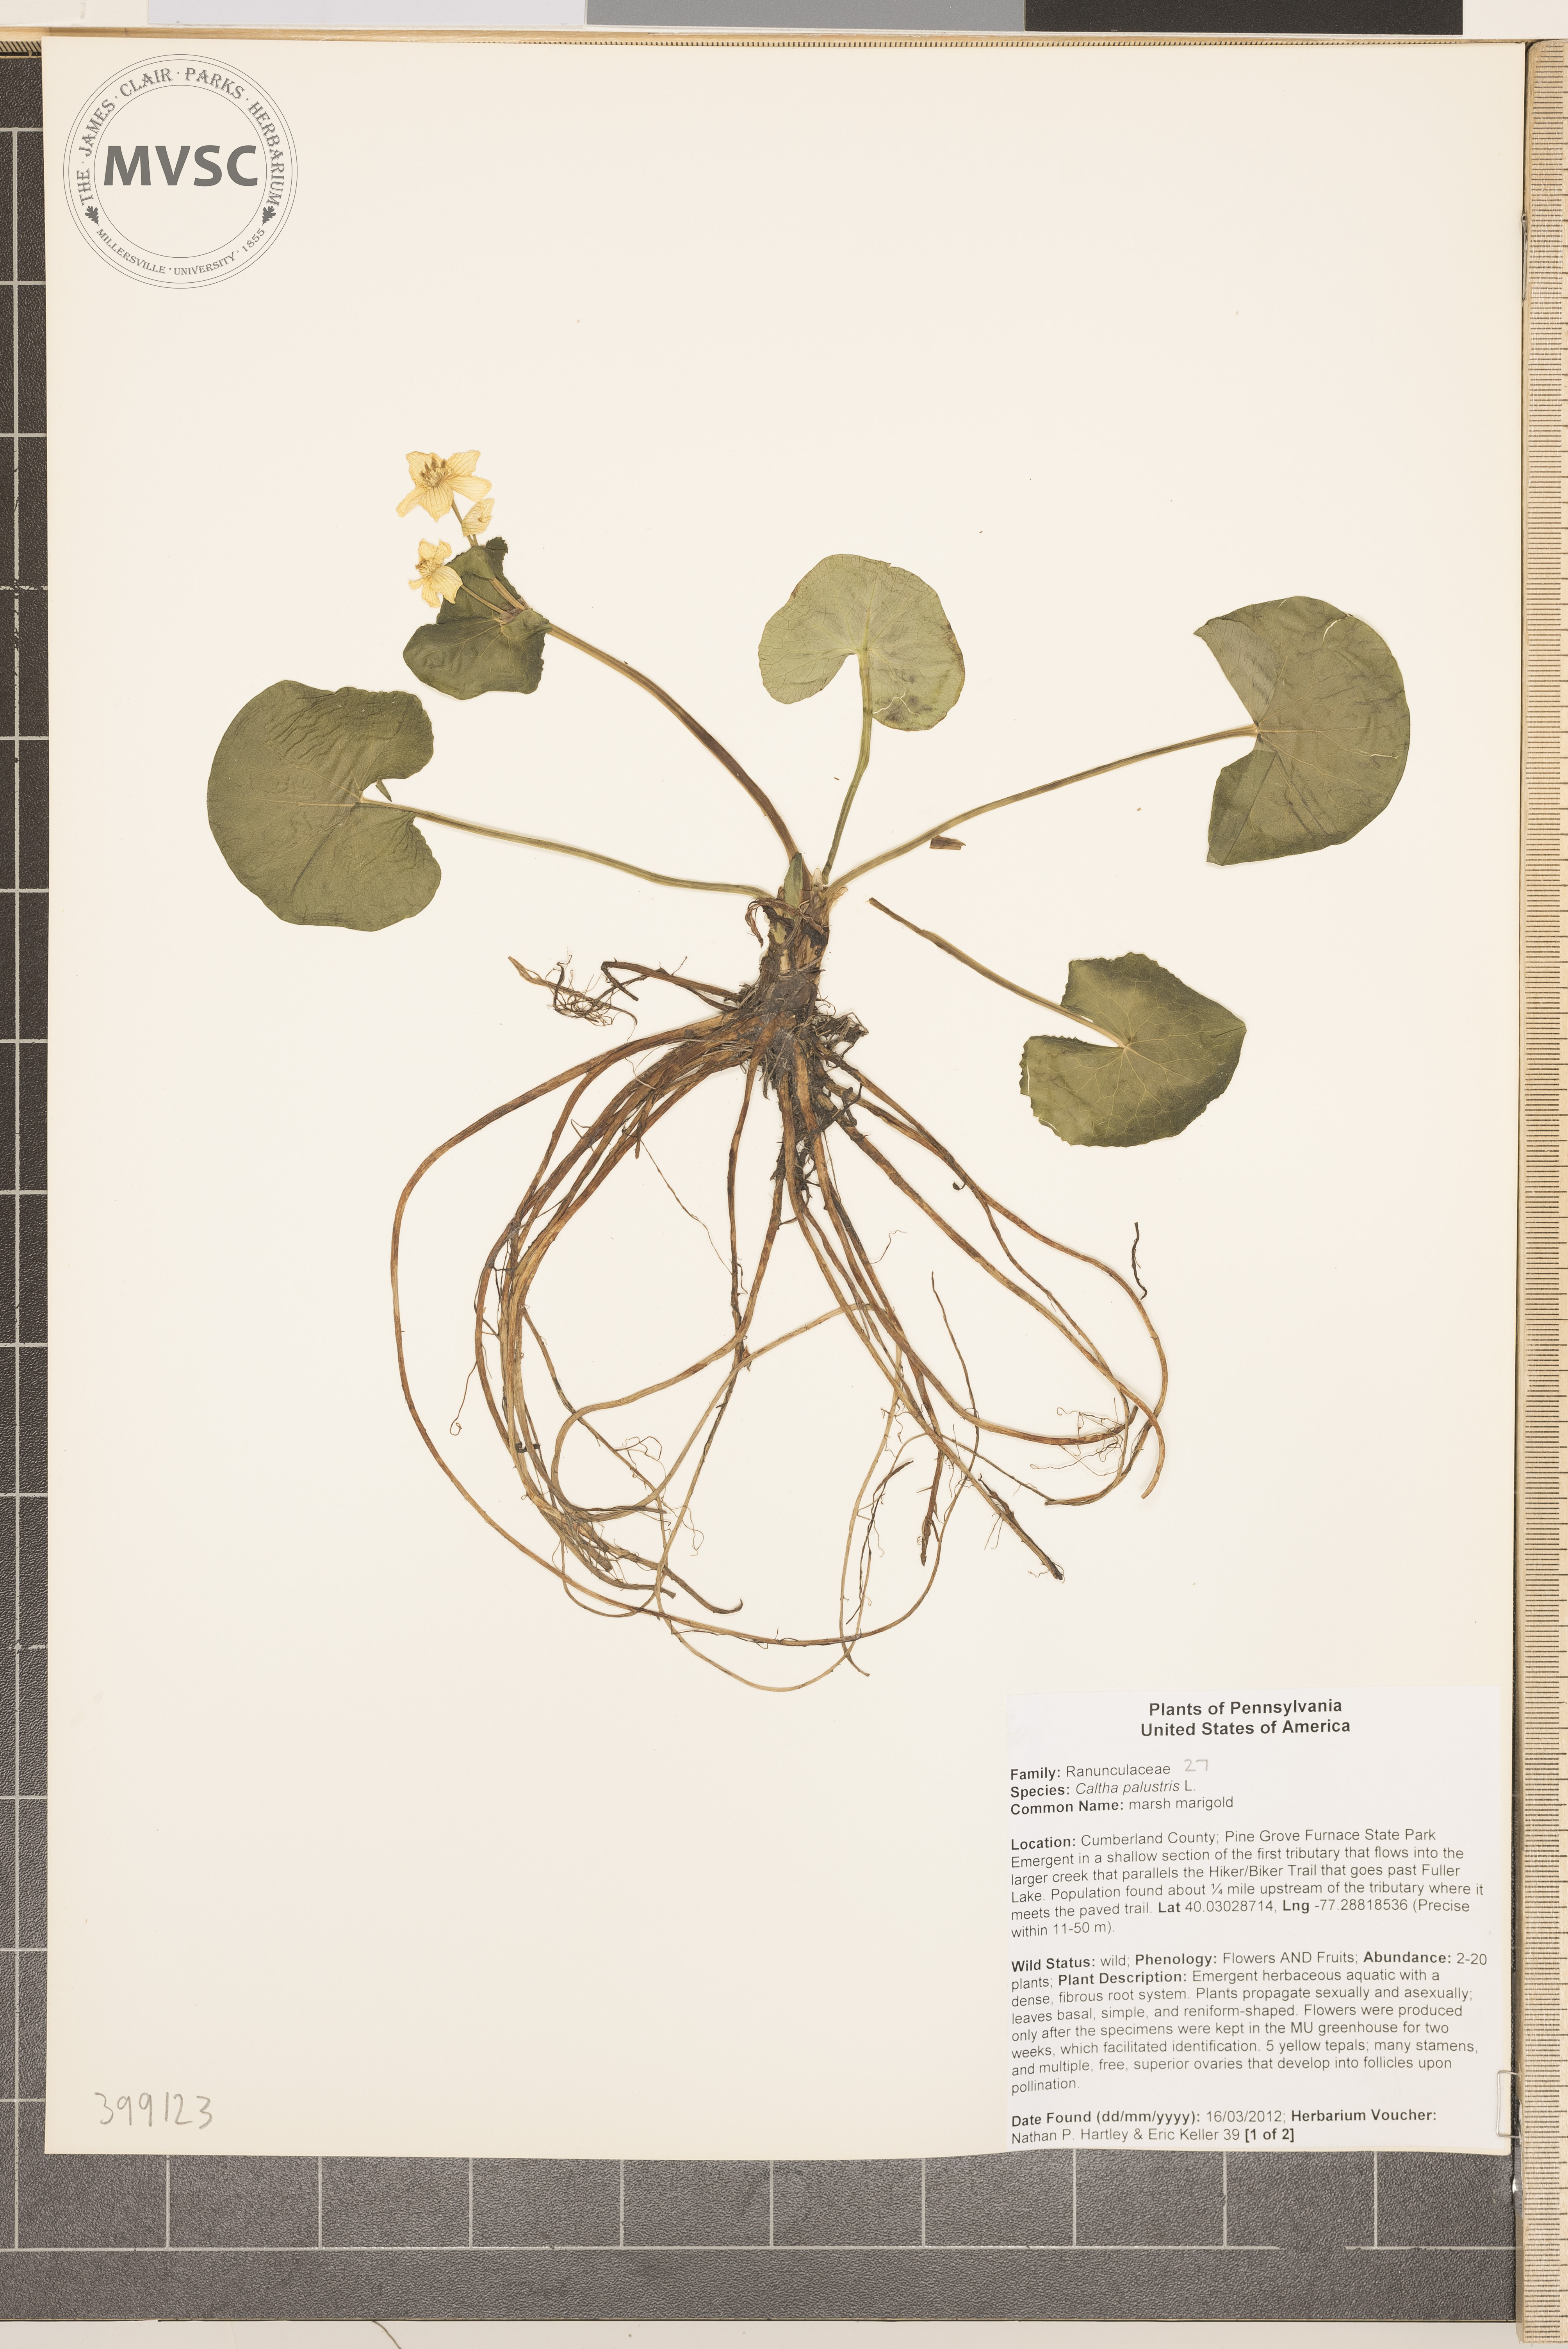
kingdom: Plantae
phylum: Tracheophyta
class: Magnoliopsida
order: Ranunculales
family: Ranunculaceae
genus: Caltha
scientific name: Caltha palustris
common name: Marsh-marigold
